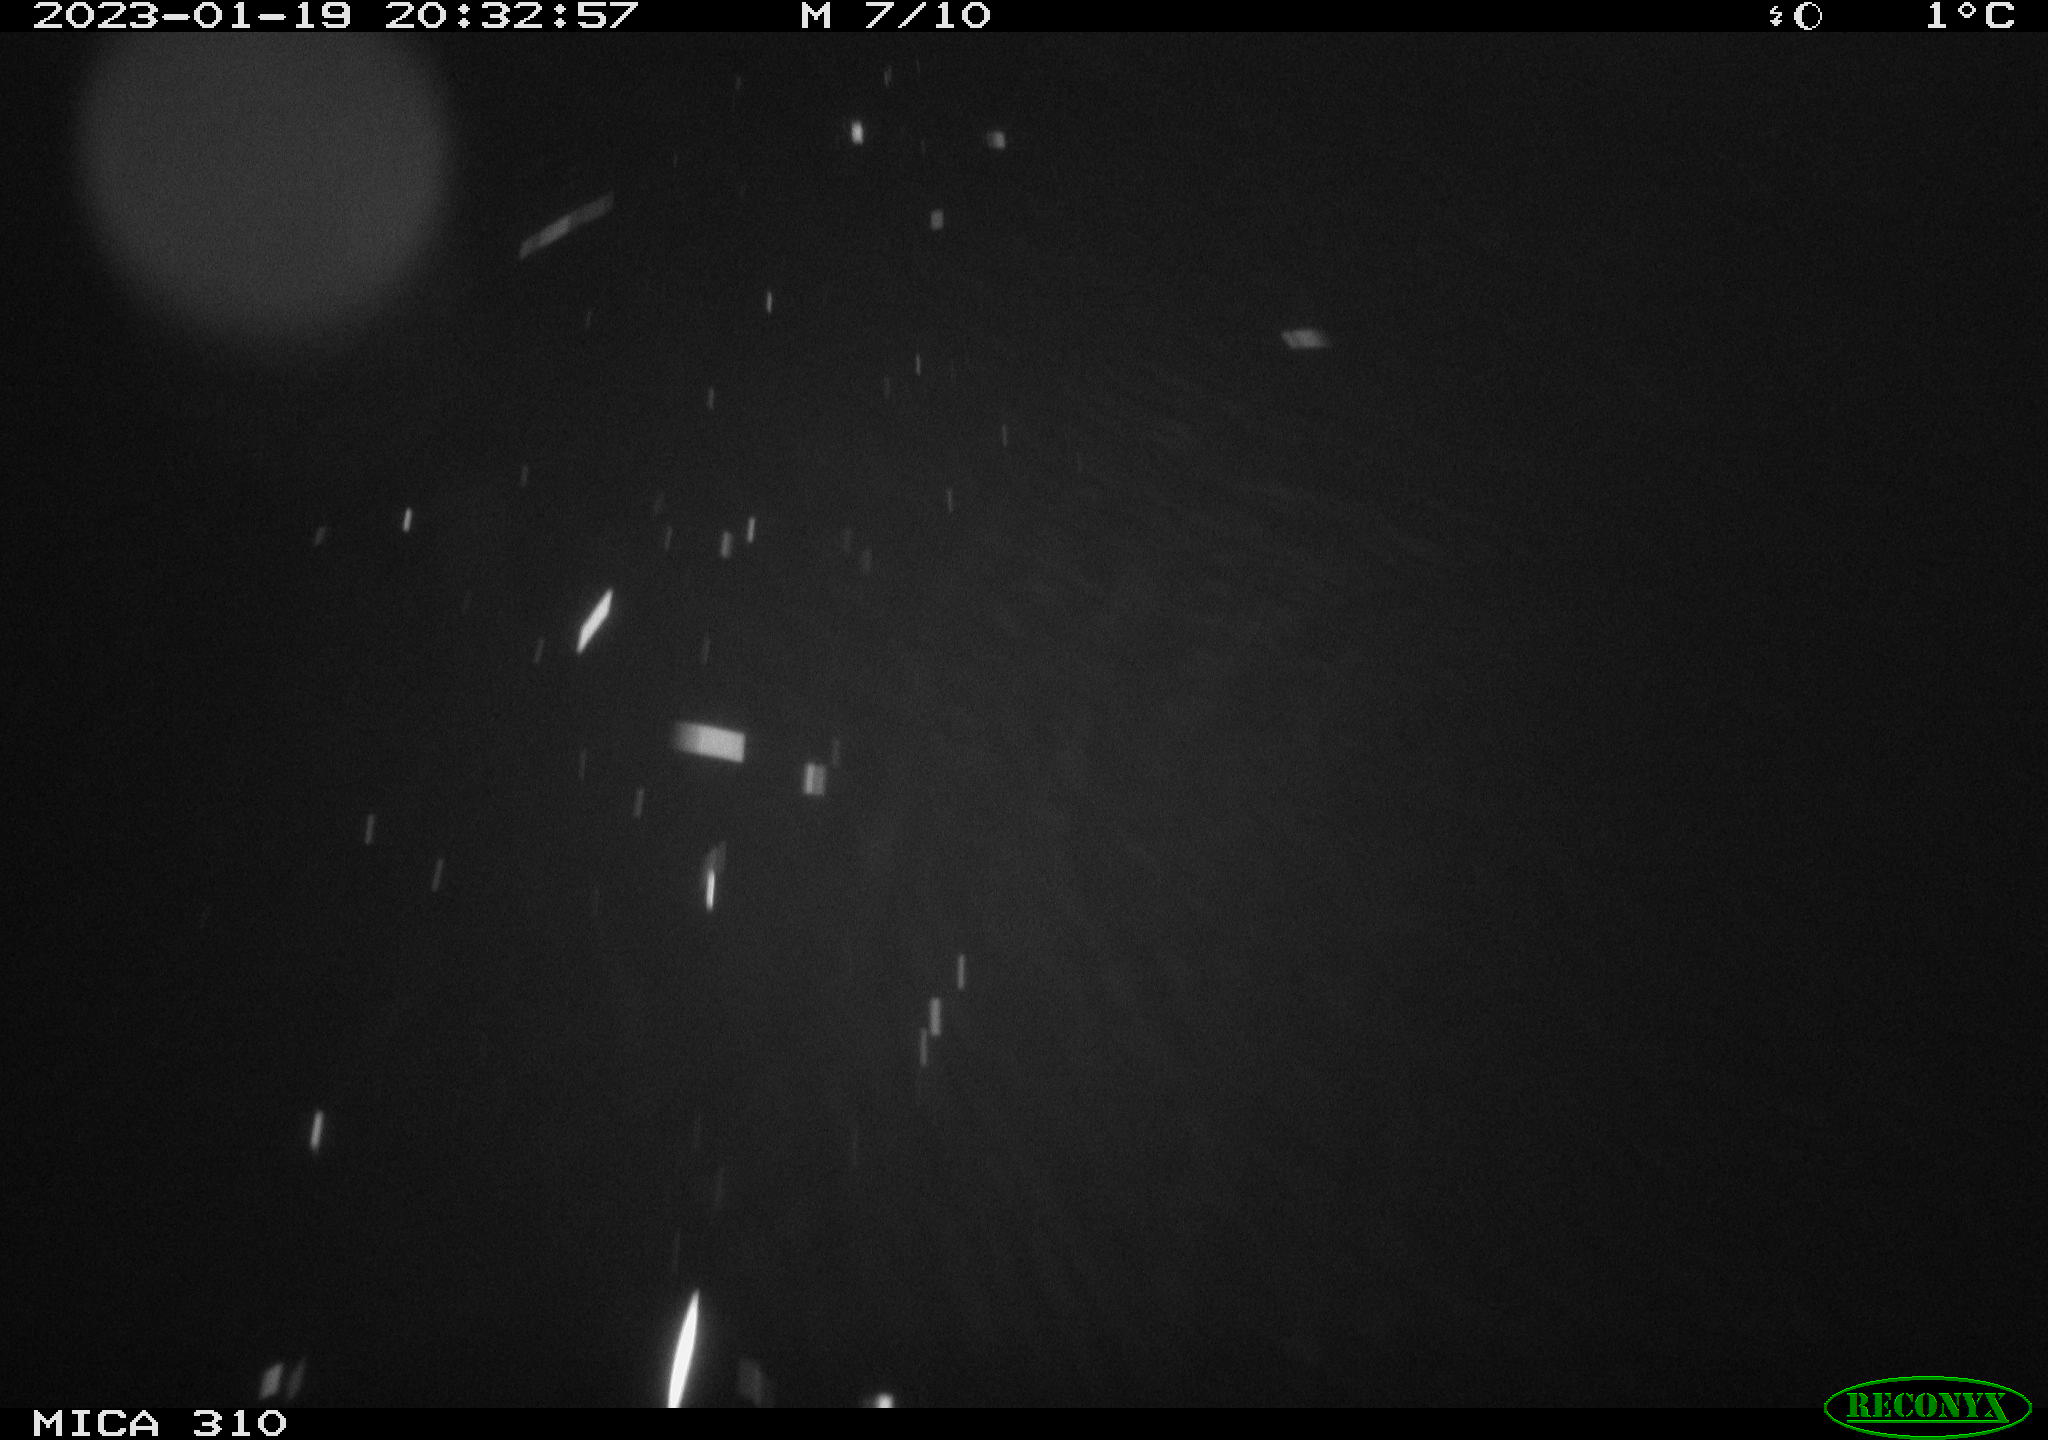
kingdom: Animalia
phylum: Chordata
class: Mammalia
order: Rodentia
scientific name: Rodentia
